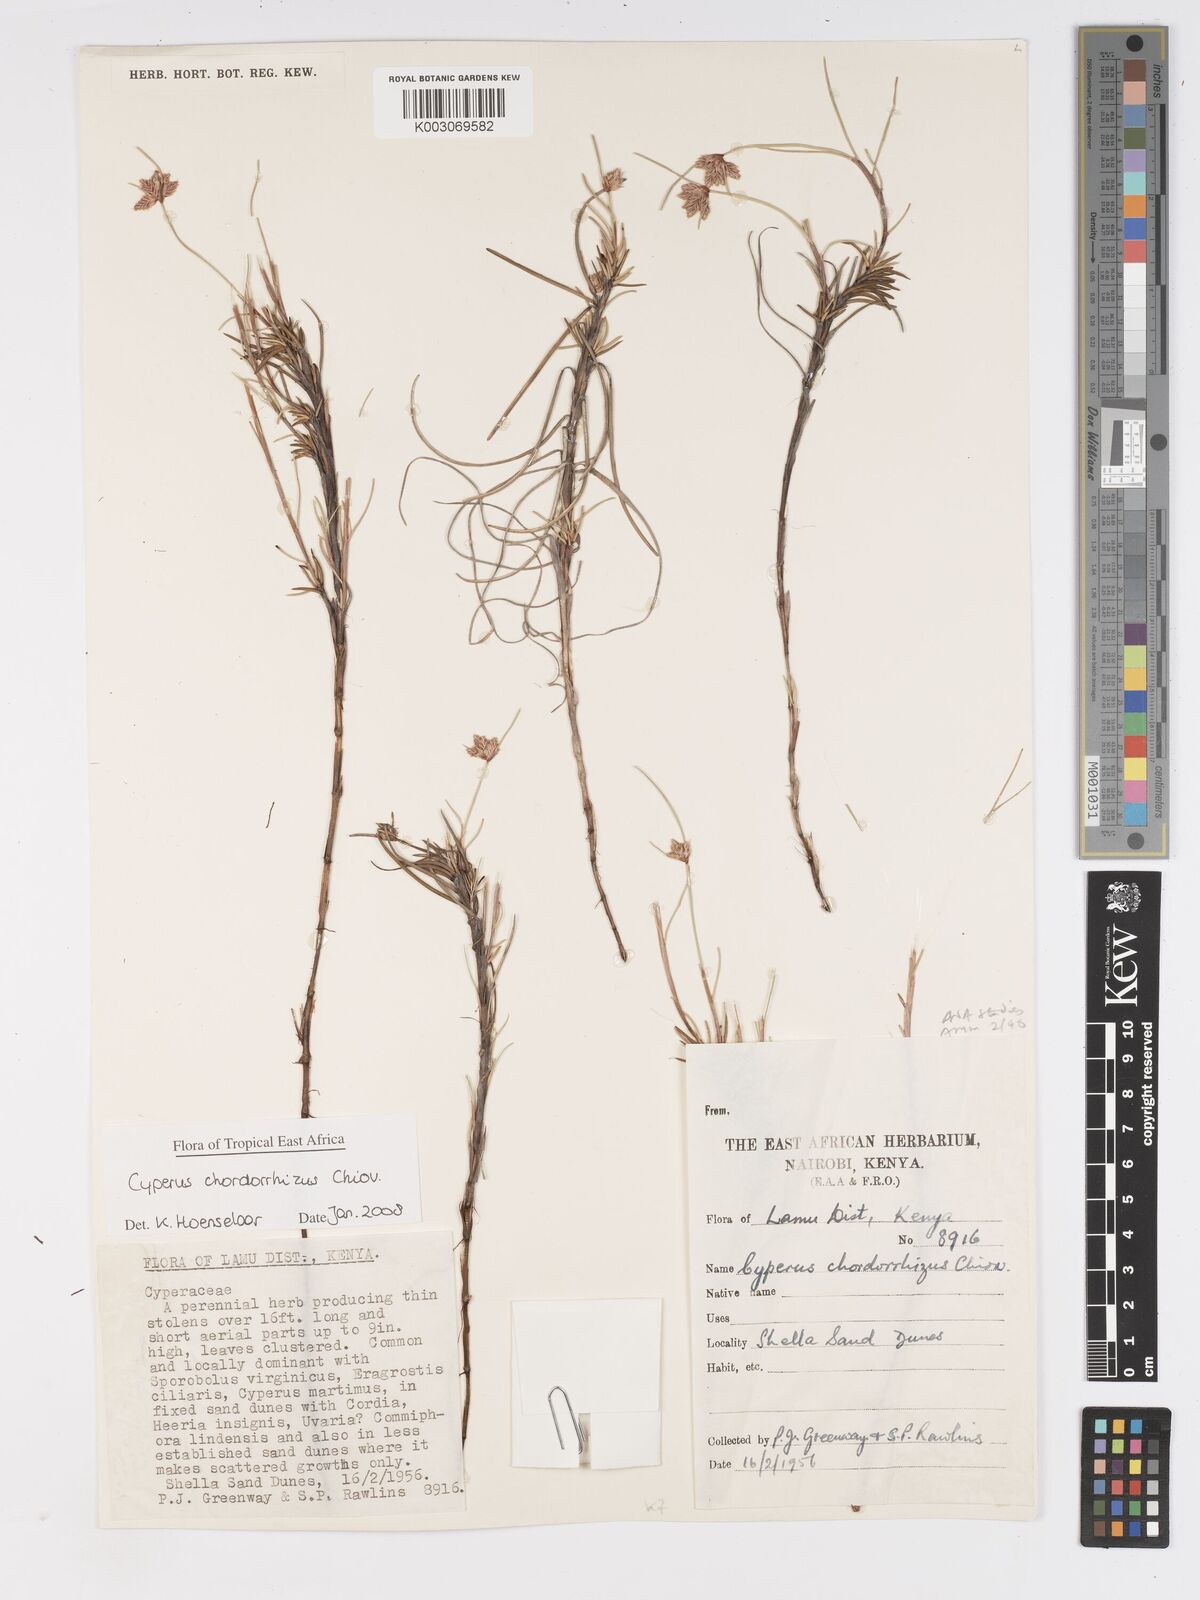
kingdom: Plantae
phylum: Tracheophyta
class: Liliopsida
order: Poales
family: Cyperaceae
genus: Cyperus
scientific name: Cyperus chordorrhizus
